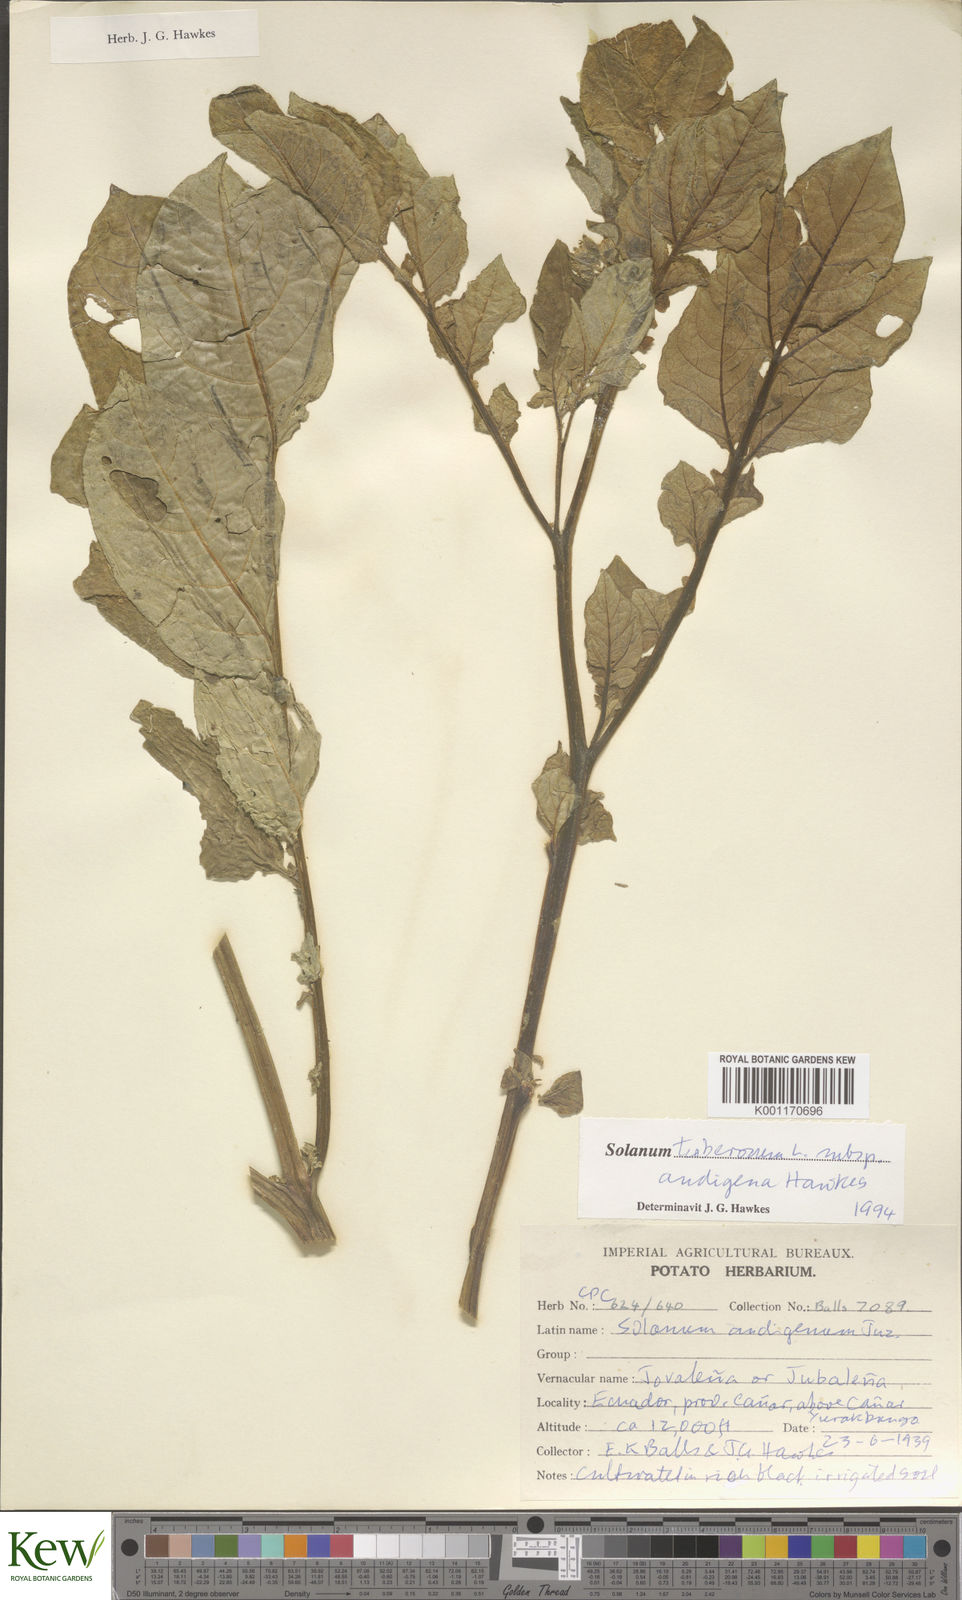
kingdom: Plantae
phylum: Tracheophyta
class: Magnoliopsida
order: Solanales
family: Solanaceae
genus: Solanum
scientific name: Solanum tuberosum
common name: Potato
